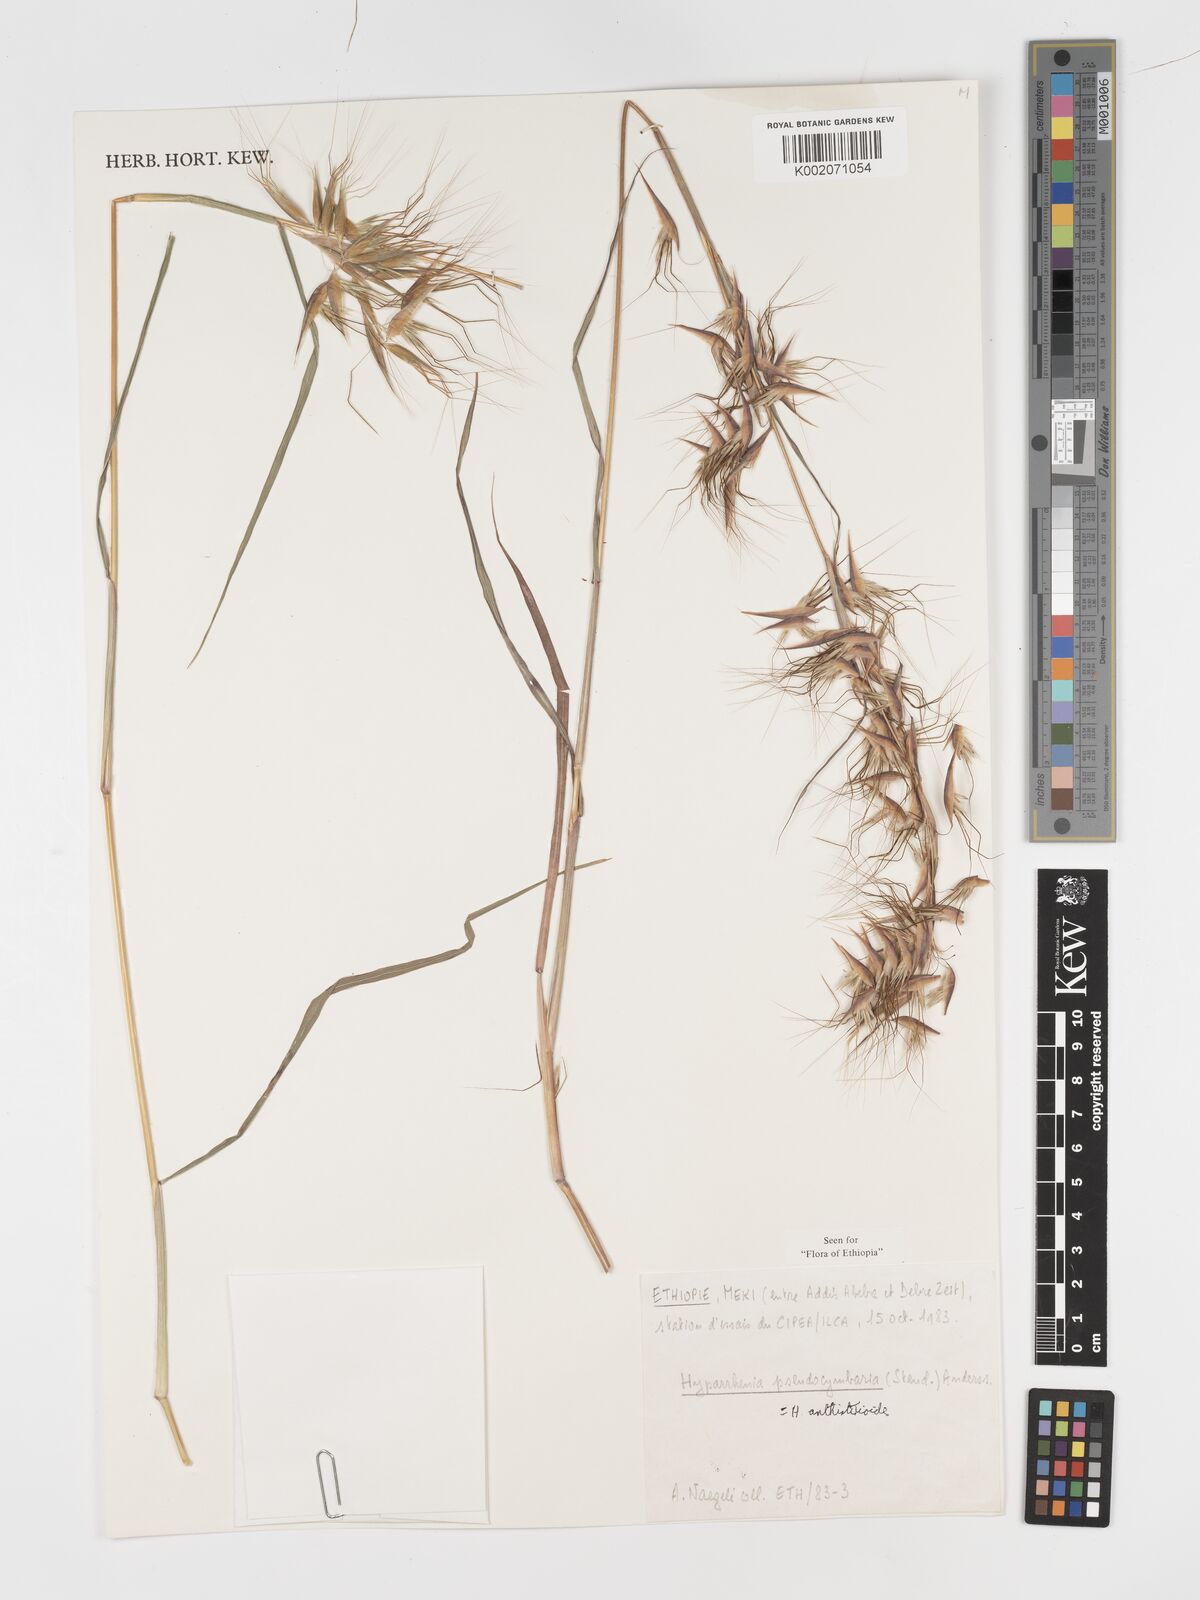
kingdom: Plantae
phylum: Tracheophyta
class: Liliopsida
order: Poales
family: Poaceae
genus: Hyparrhenia
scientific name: Hyparrhenia anthistirioides
